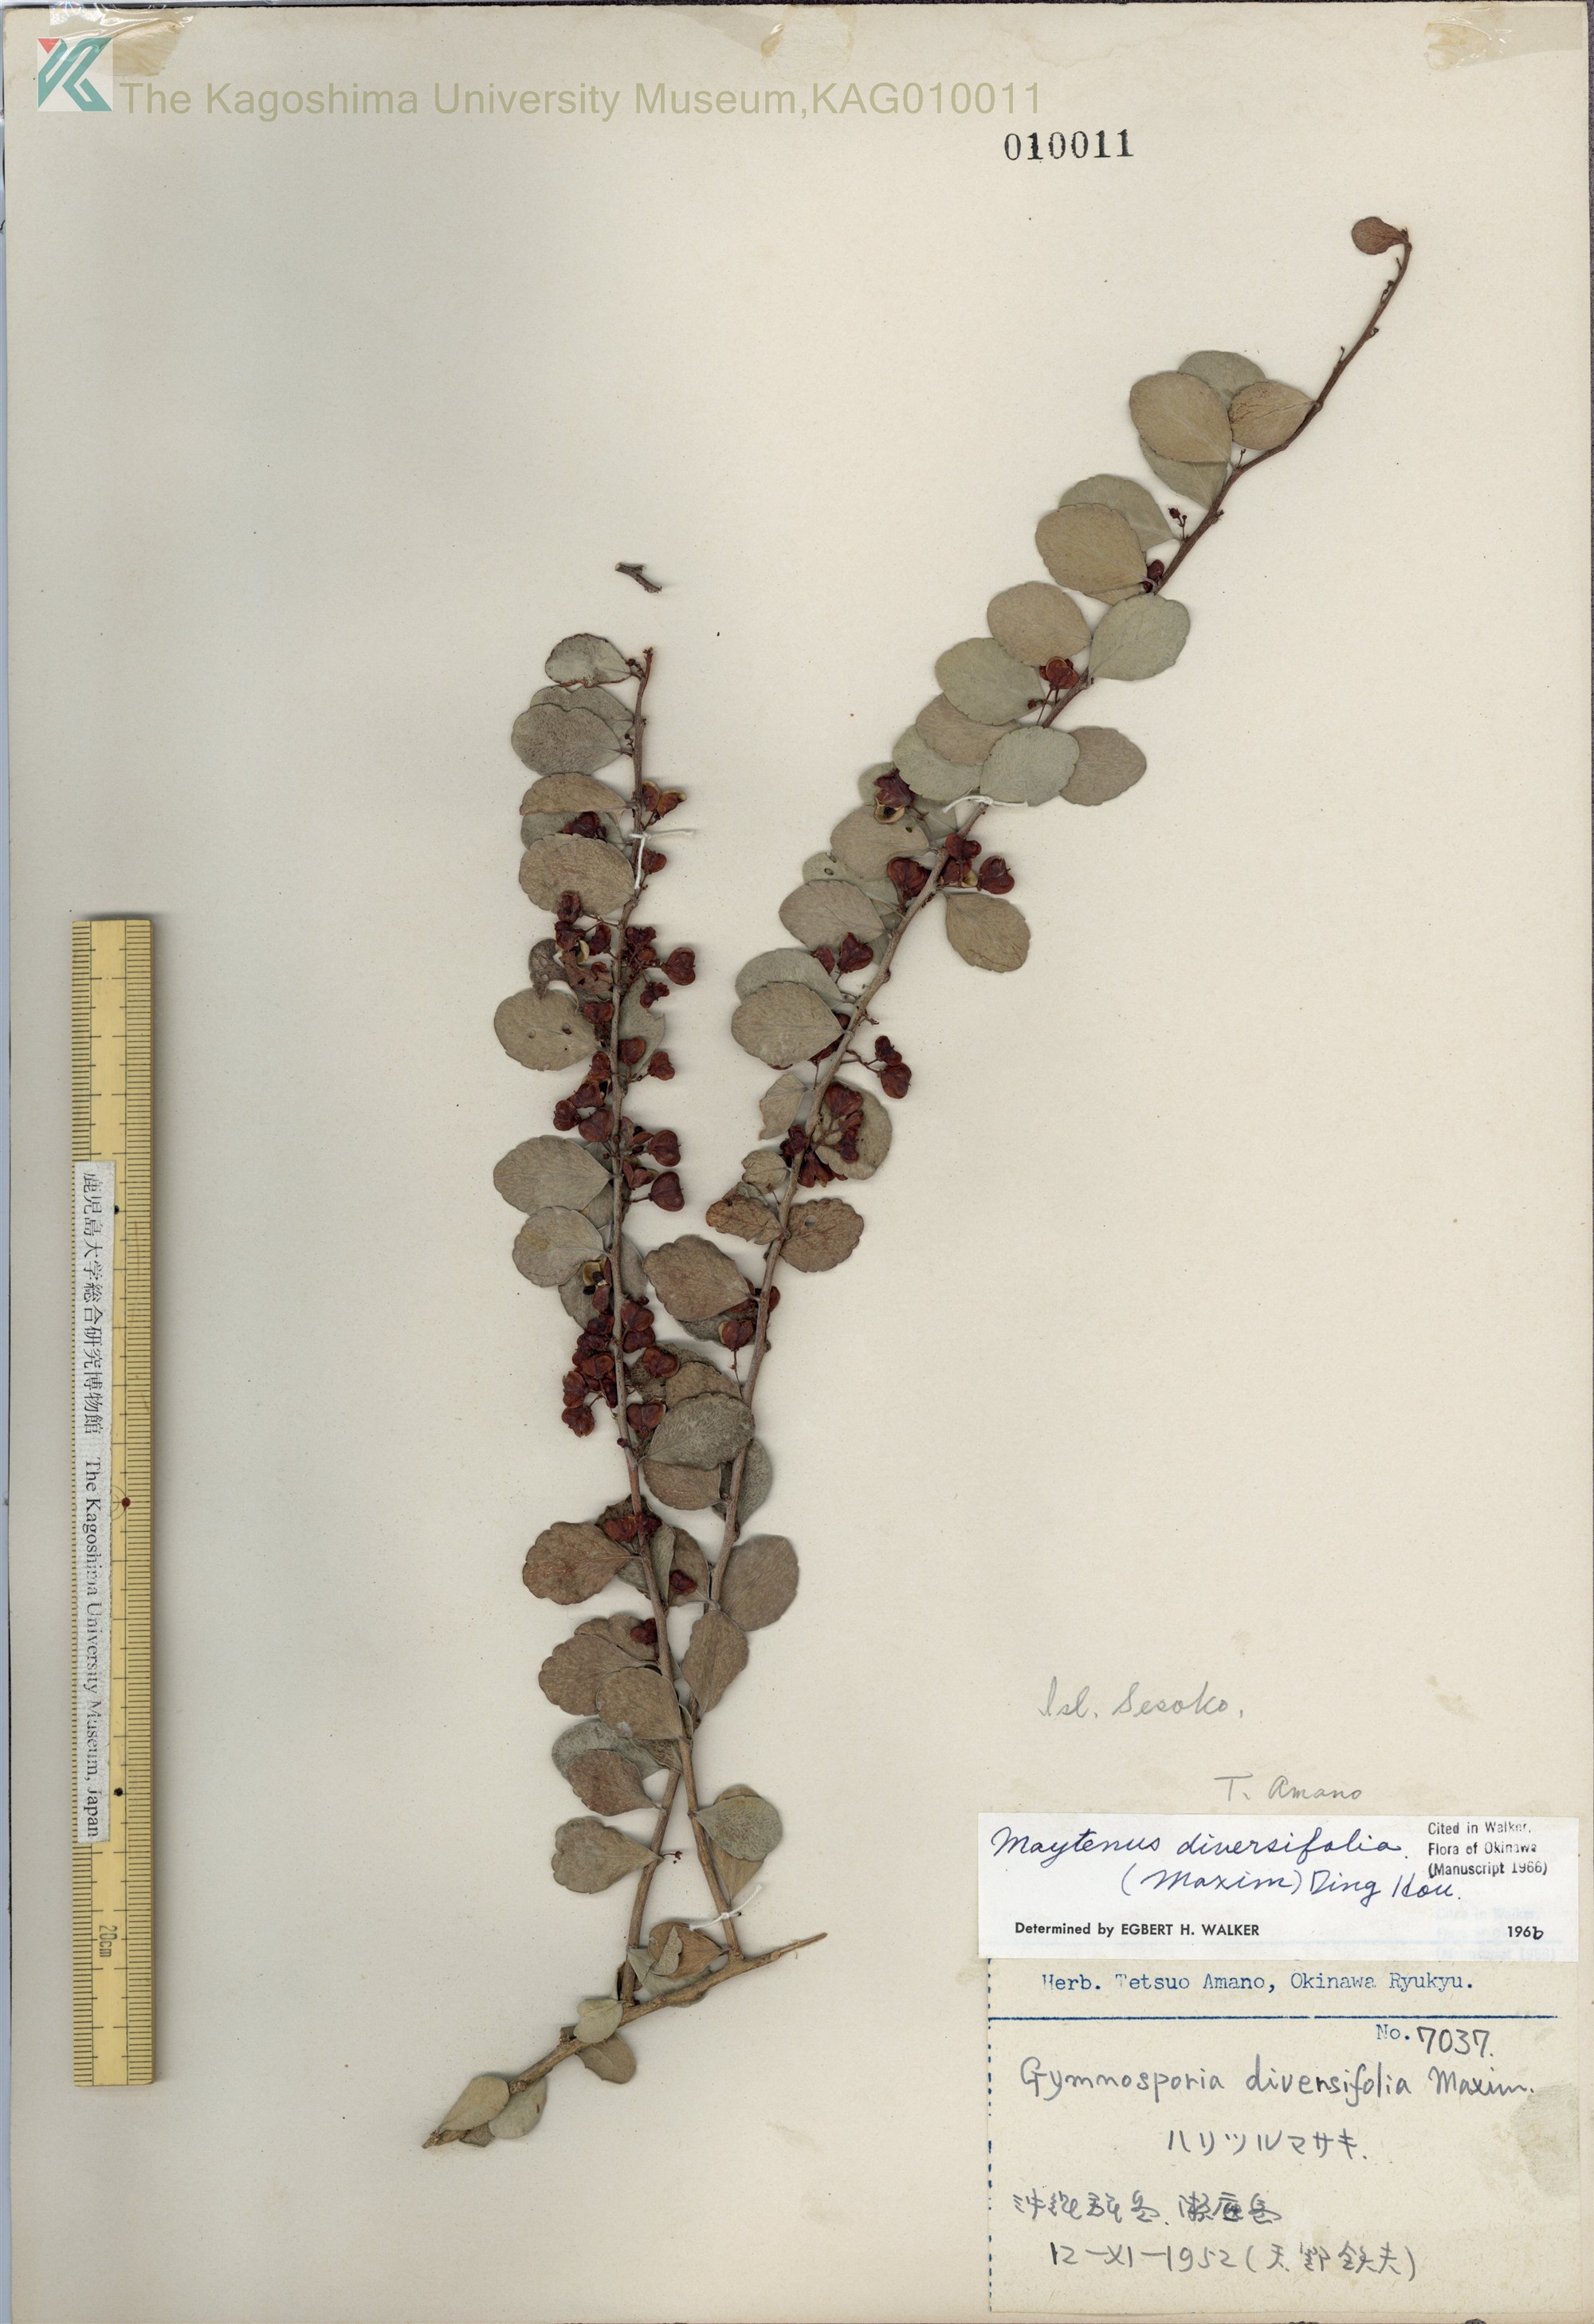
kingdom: Plantae
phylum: Tracheophyta
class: Magnoliopsida
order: Celastrales
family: Celastraceae
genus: Gymnosporia
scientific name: Gymnosporia diversifolia
